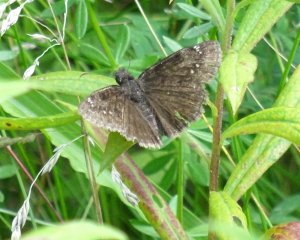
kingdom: Animalia
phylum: Arthropoda
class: Insecta
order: Lepidoptera
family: Hesperiidae
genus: Gesta
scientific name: Gesta
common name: Wild Indigo Duskywing
